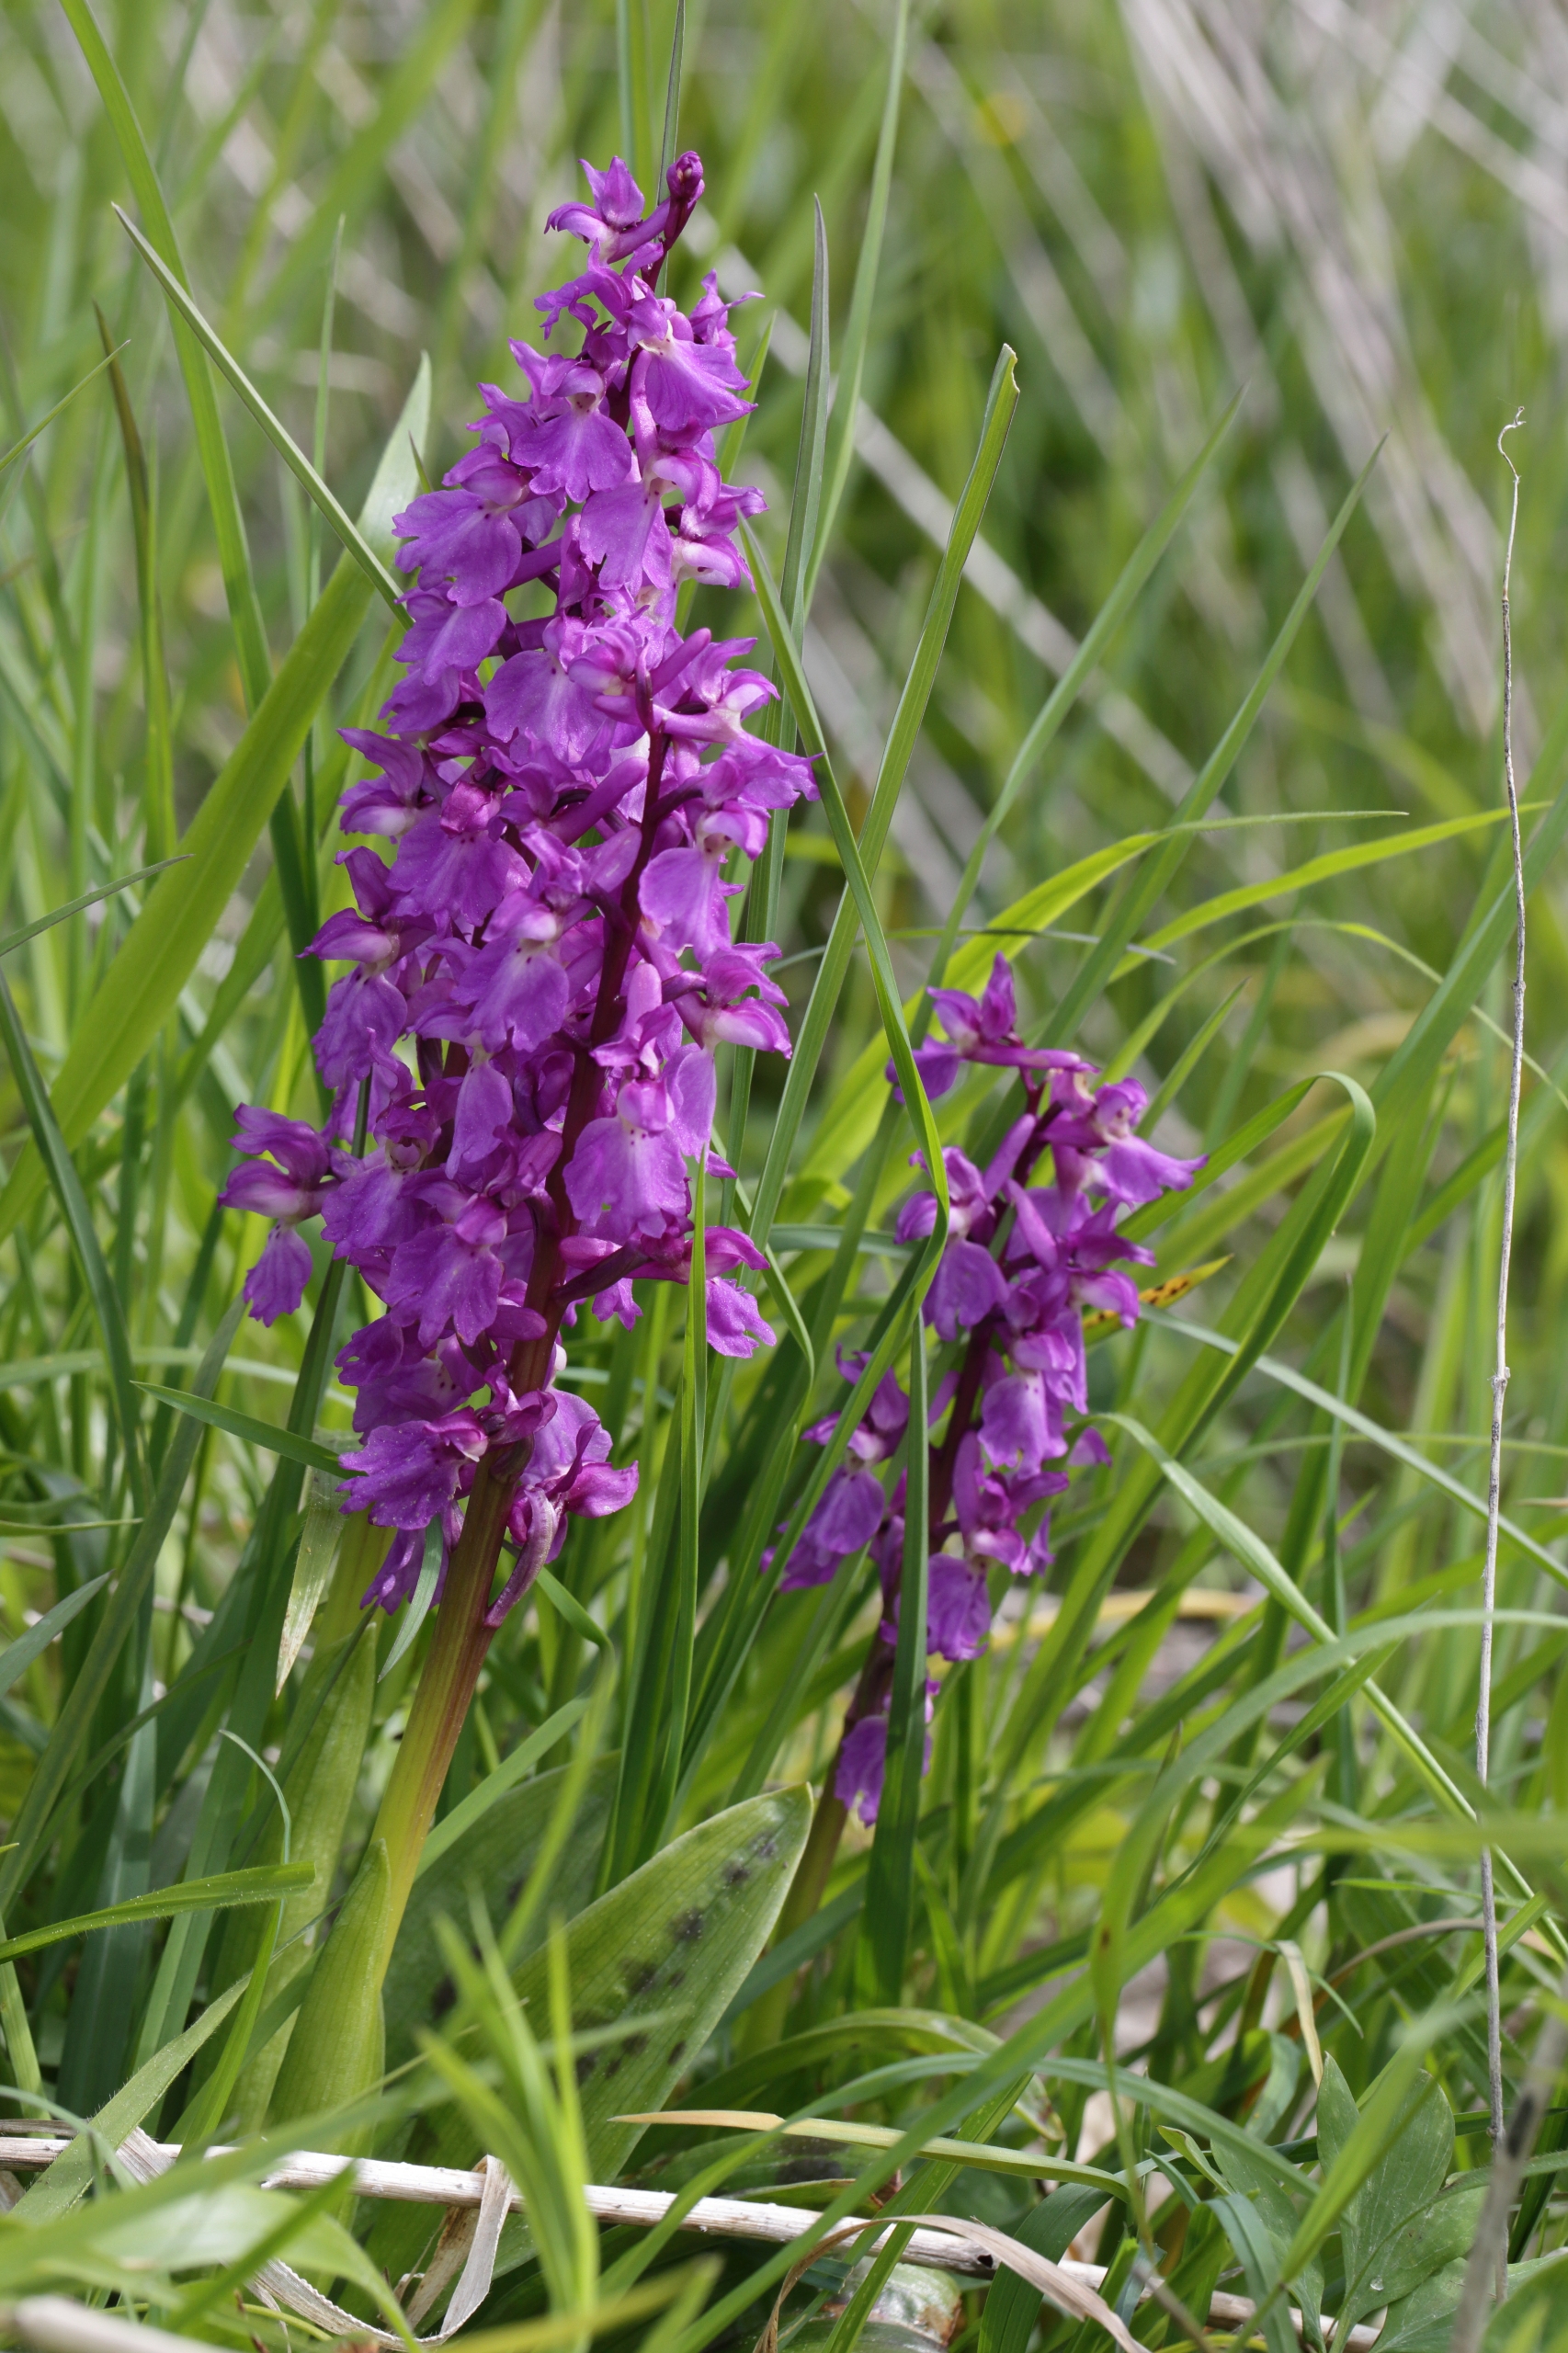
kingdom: Plantae
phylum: Tracheophyta
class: Liliopsida
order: Asparagales
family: Orchidaceae
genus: Orchis
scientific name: Orchis mascula
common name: Tyndakset gøgeurt
